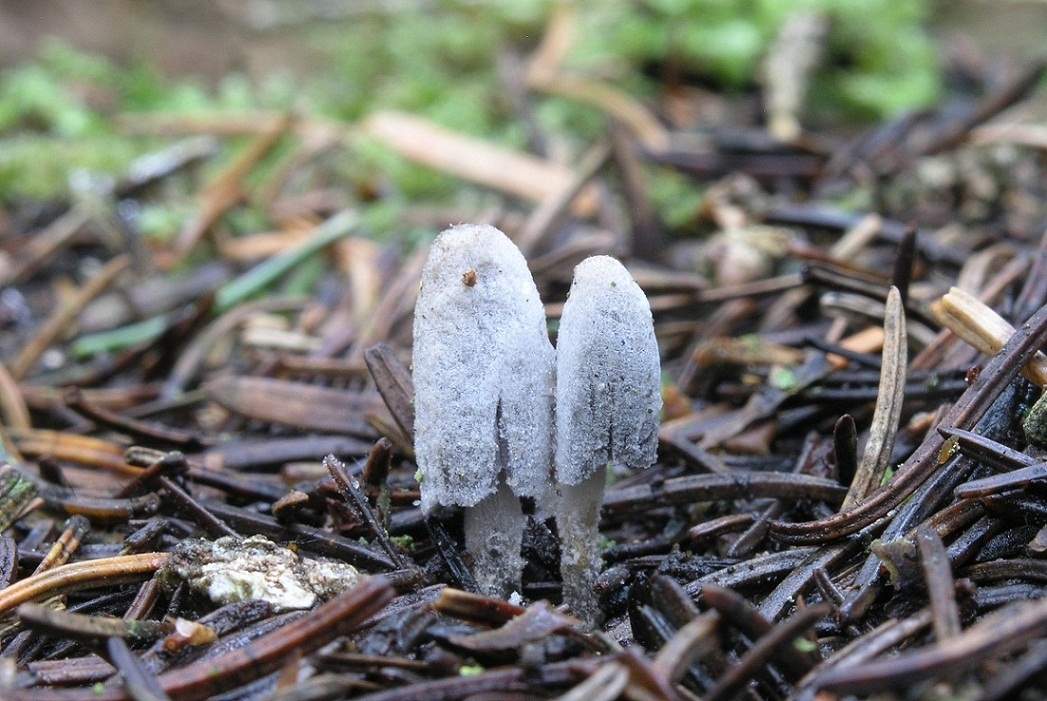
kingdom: Fungi
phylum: Basidiomycota
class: Agaricomycetes
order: Agaricales
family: Psathyrellaceae
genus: Coprinopsis
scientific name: Coprinopsis laanii
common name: stub-blækhat
